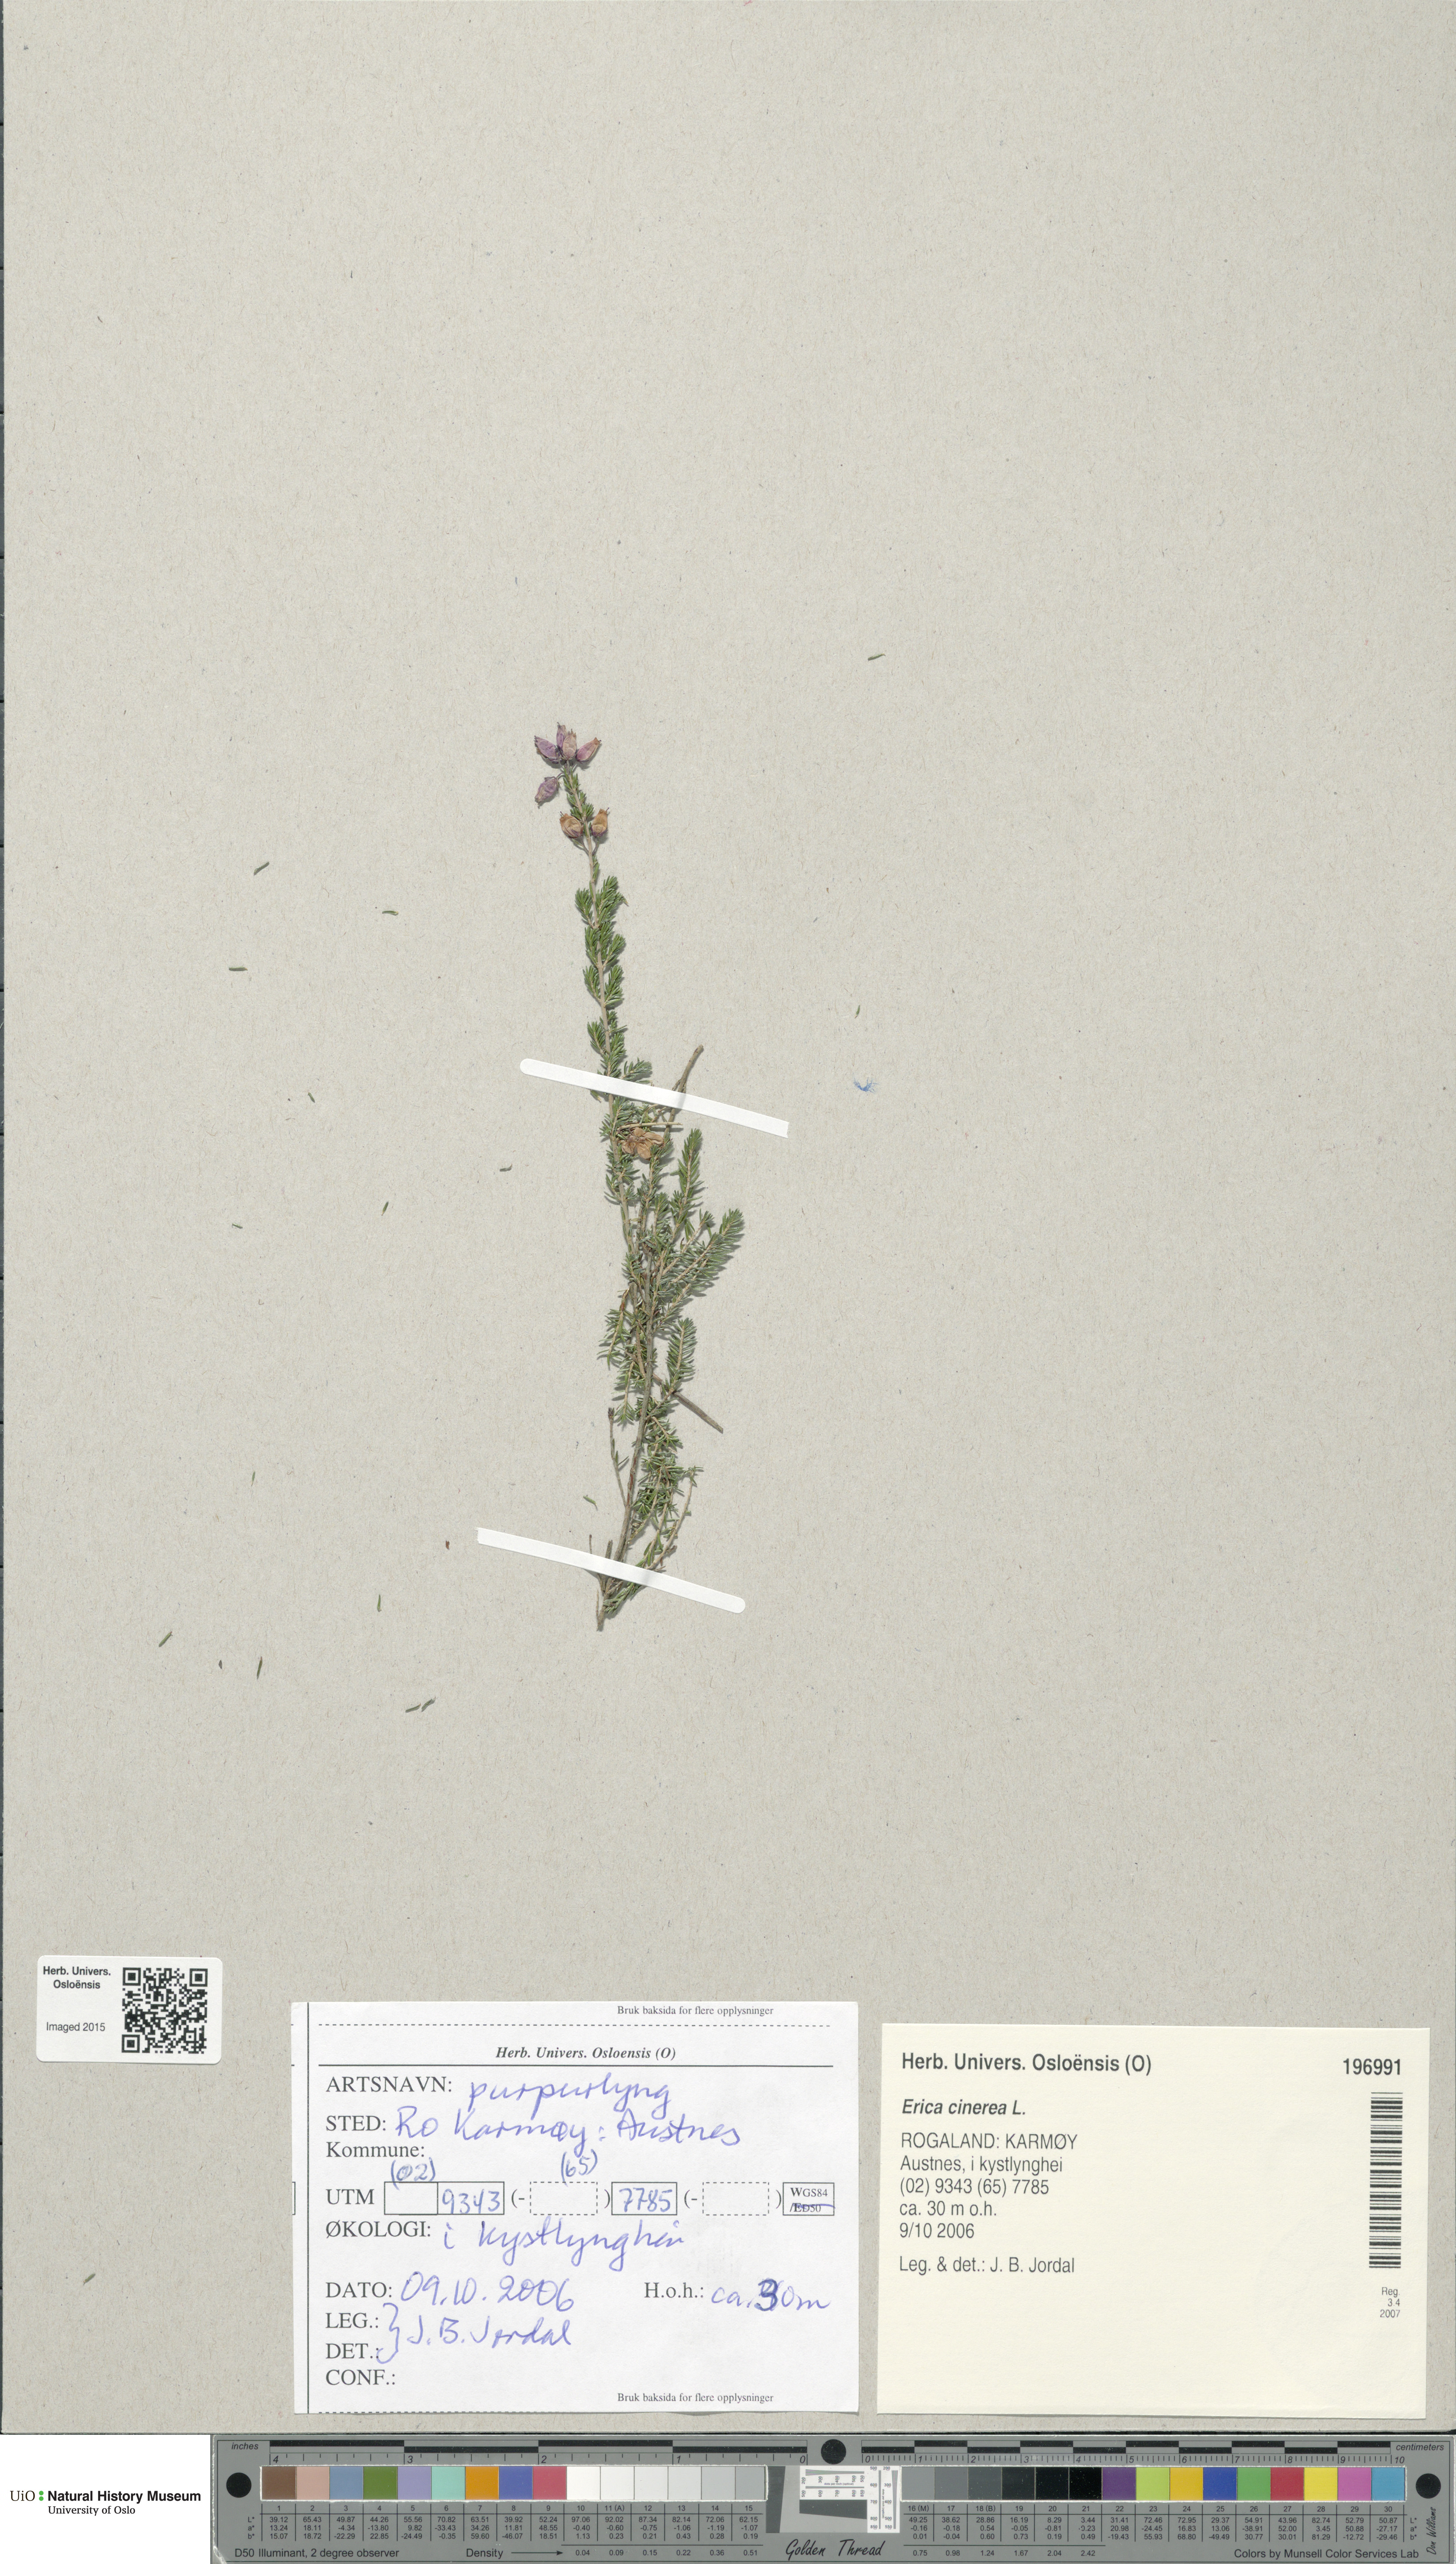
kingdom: Plantae
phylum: Tracheophyta
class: Magnoliopsida
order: Ericales
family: Ericaceae
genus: Erica
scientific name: Erica cinerea
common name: Bell heather
